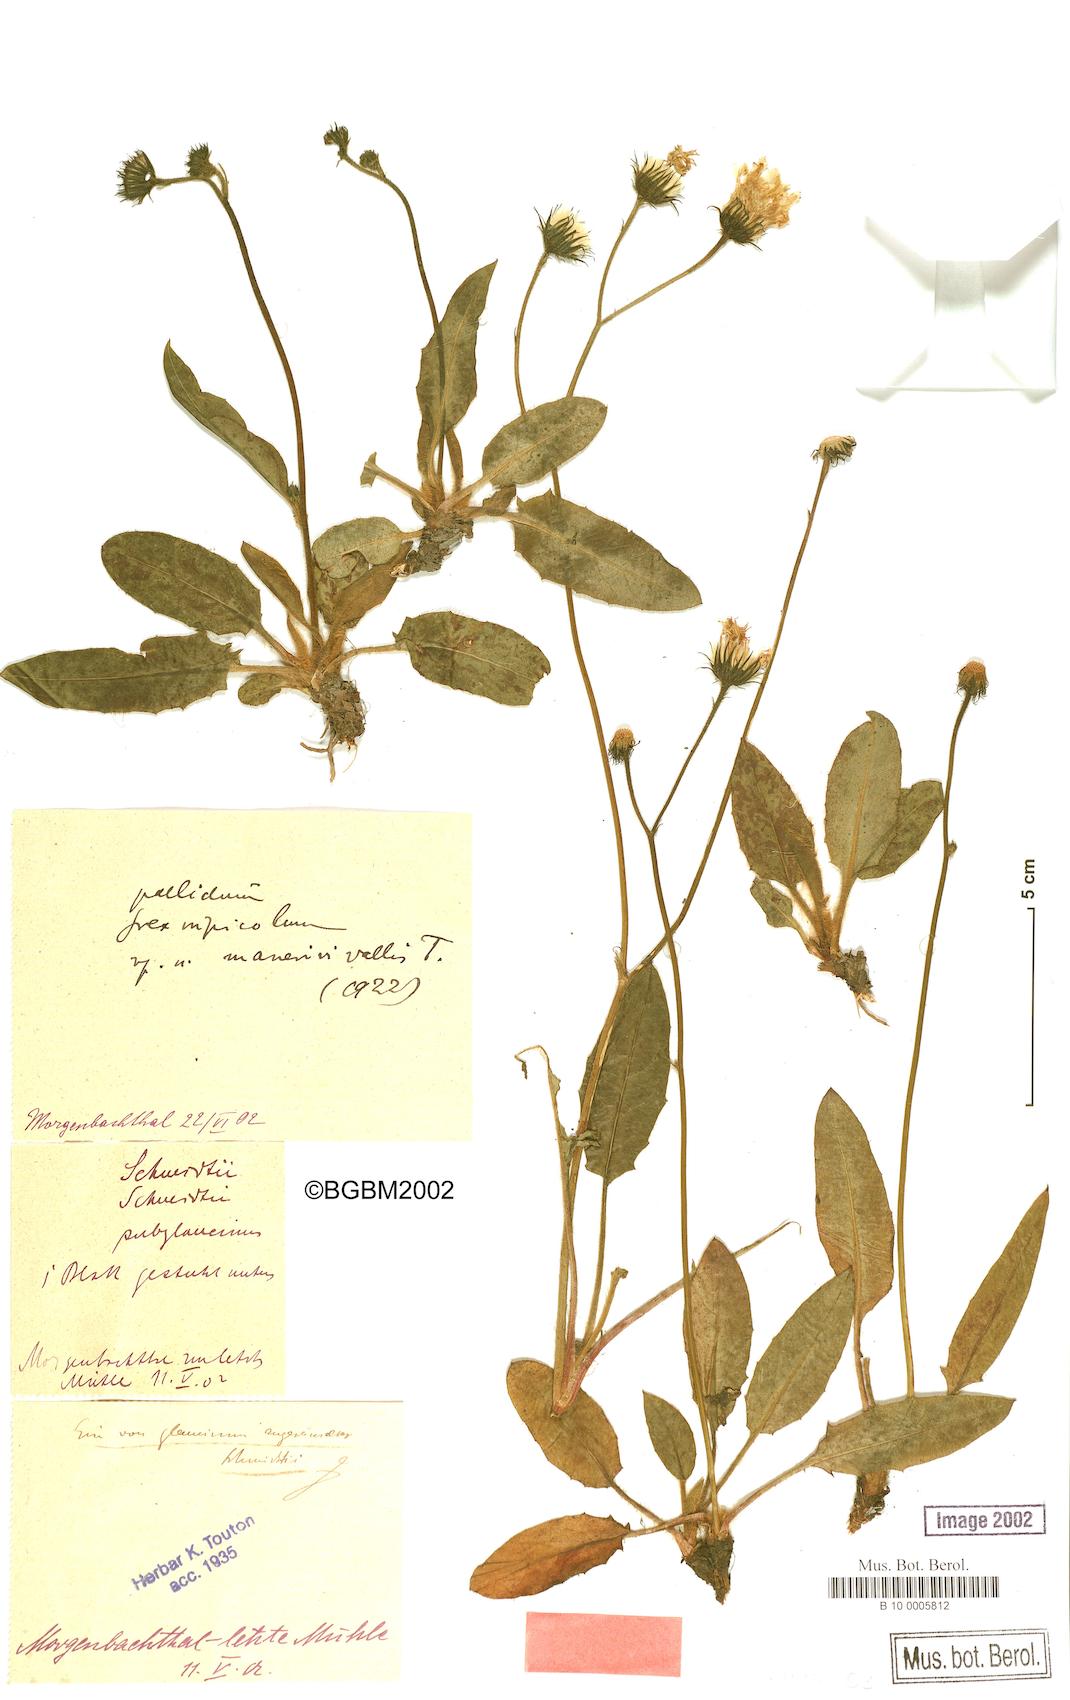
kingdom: Plantae
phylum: Tracheophyta
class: Magnoliopsida
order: Asterales
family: Asteraceae
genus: Hieracium
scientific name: Hieracium schmidtii
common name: Schmidt's hawkweed
